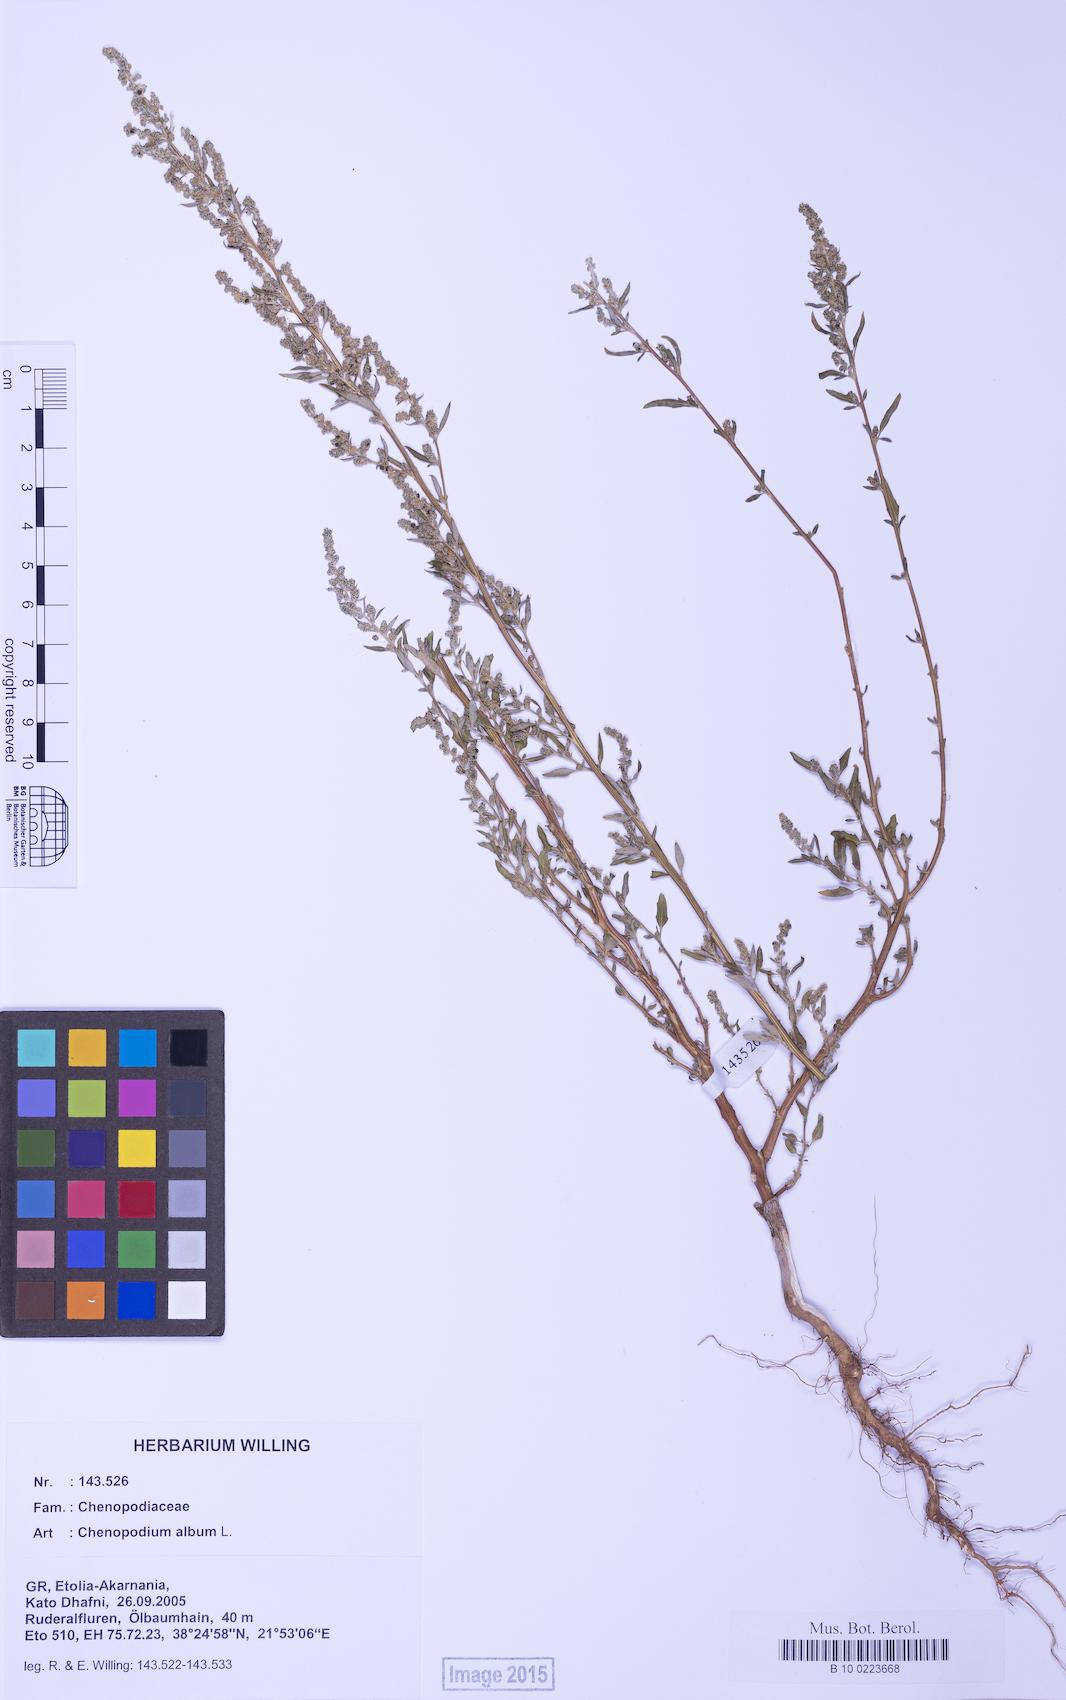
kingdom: Plantae
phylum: Tracheophyta
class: Magnoliopsida
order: Caryophyllales
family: Amaranthaceae
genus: Chenopodium
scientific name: Chenopodium album
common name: Fat-hen
